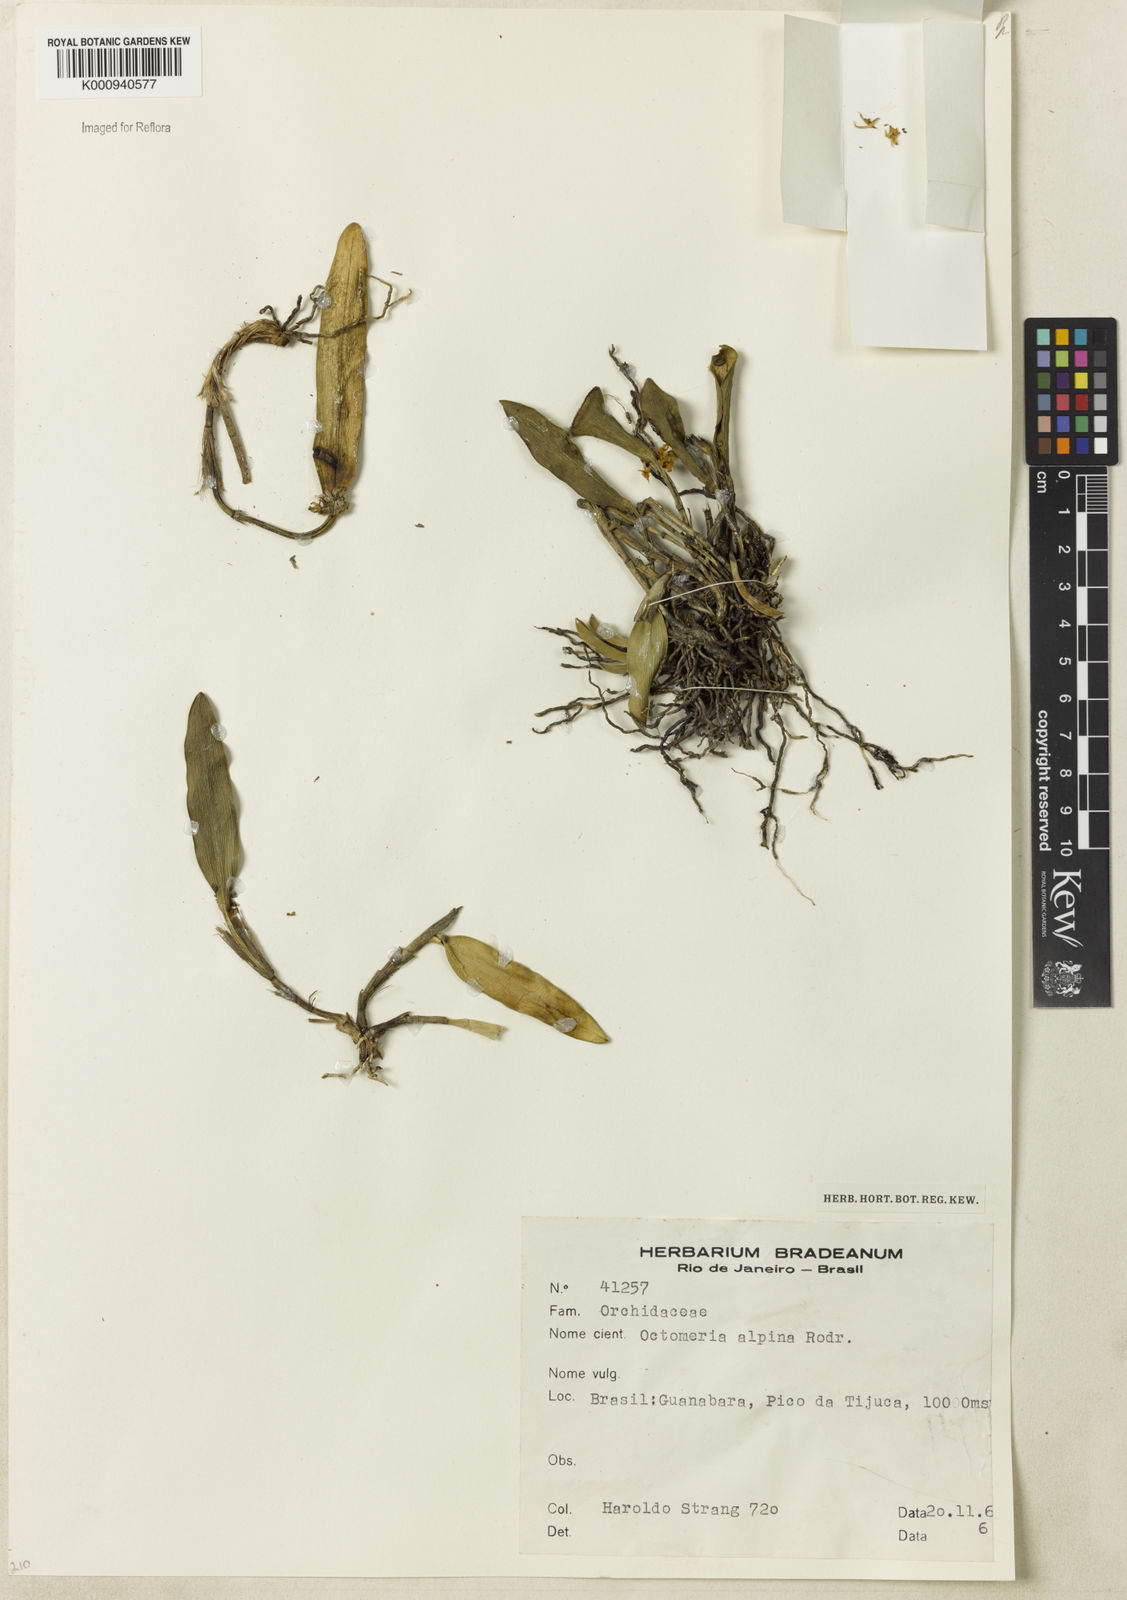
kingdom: Plantae
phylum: Tracheophyta
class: Liliopsida
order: Asparagales
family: Orchidaceae
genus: Octomeria
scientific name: Octomeria alpina
